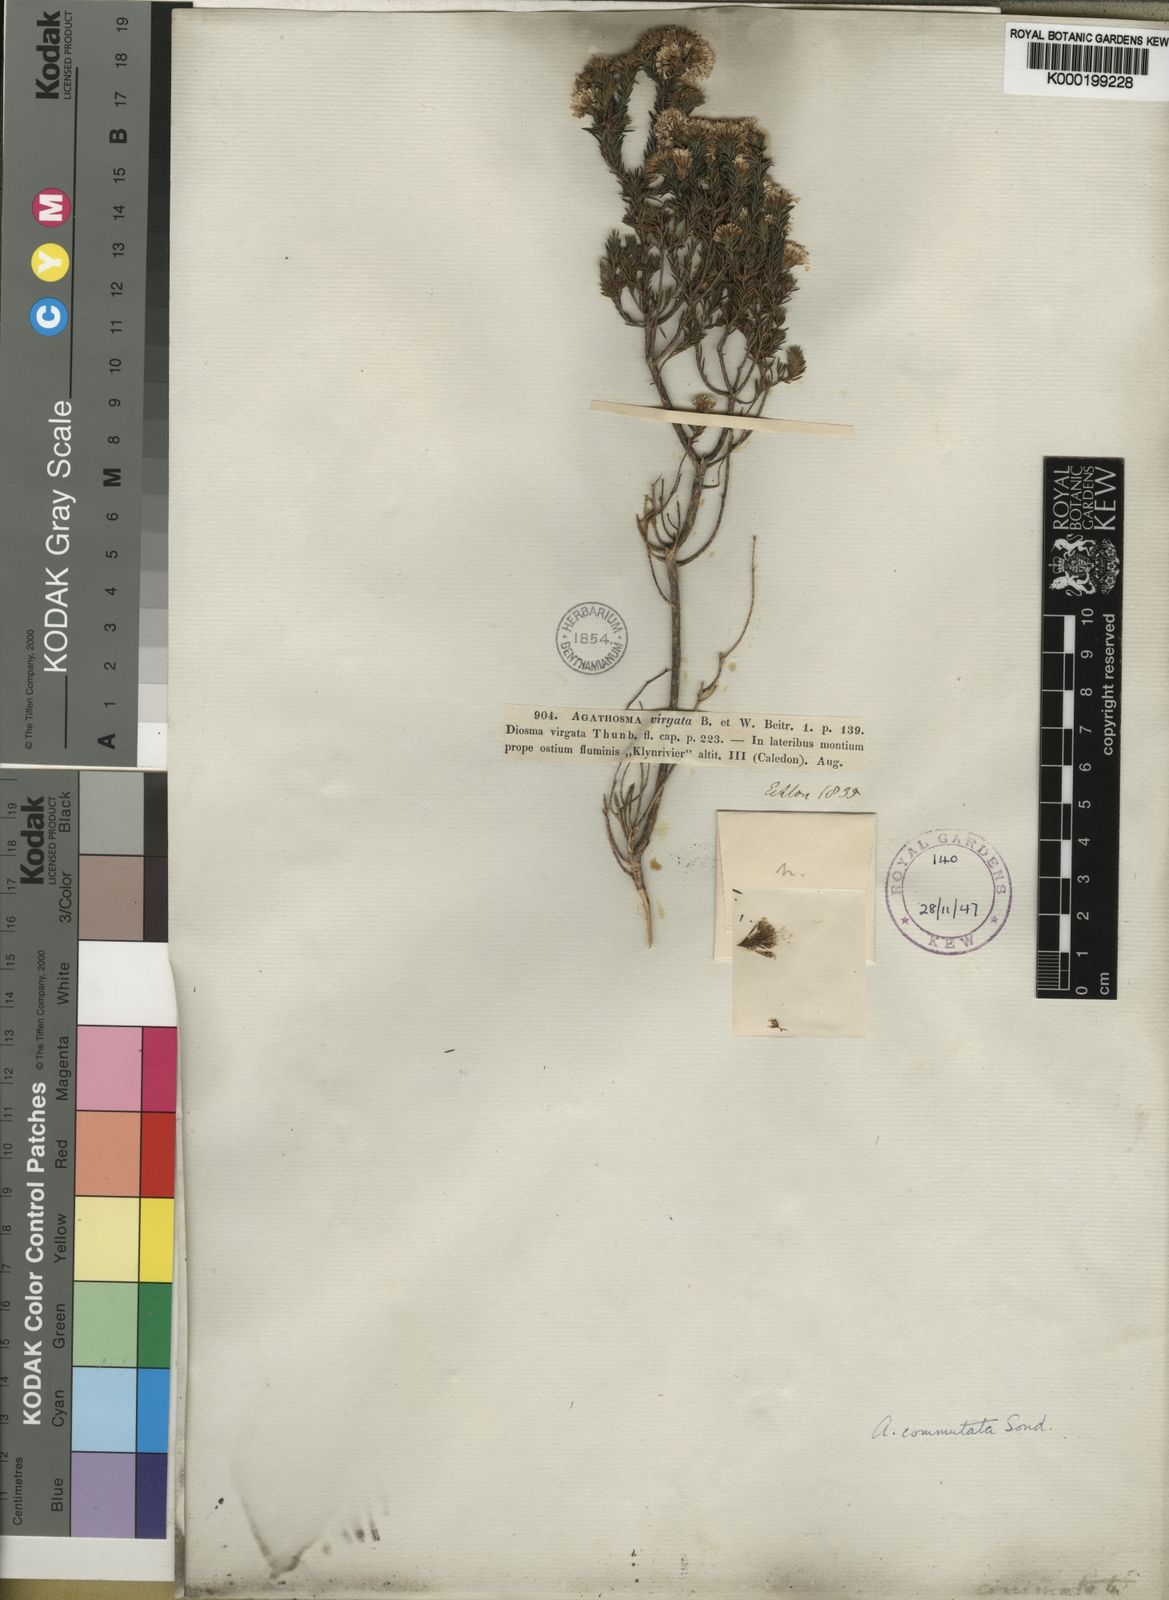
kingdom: Plantae
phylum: Tracheophyta
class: Magnoliopsida
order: Sapindales
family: Rutaceae
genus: Agathosma
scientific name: Agathosma virgata
